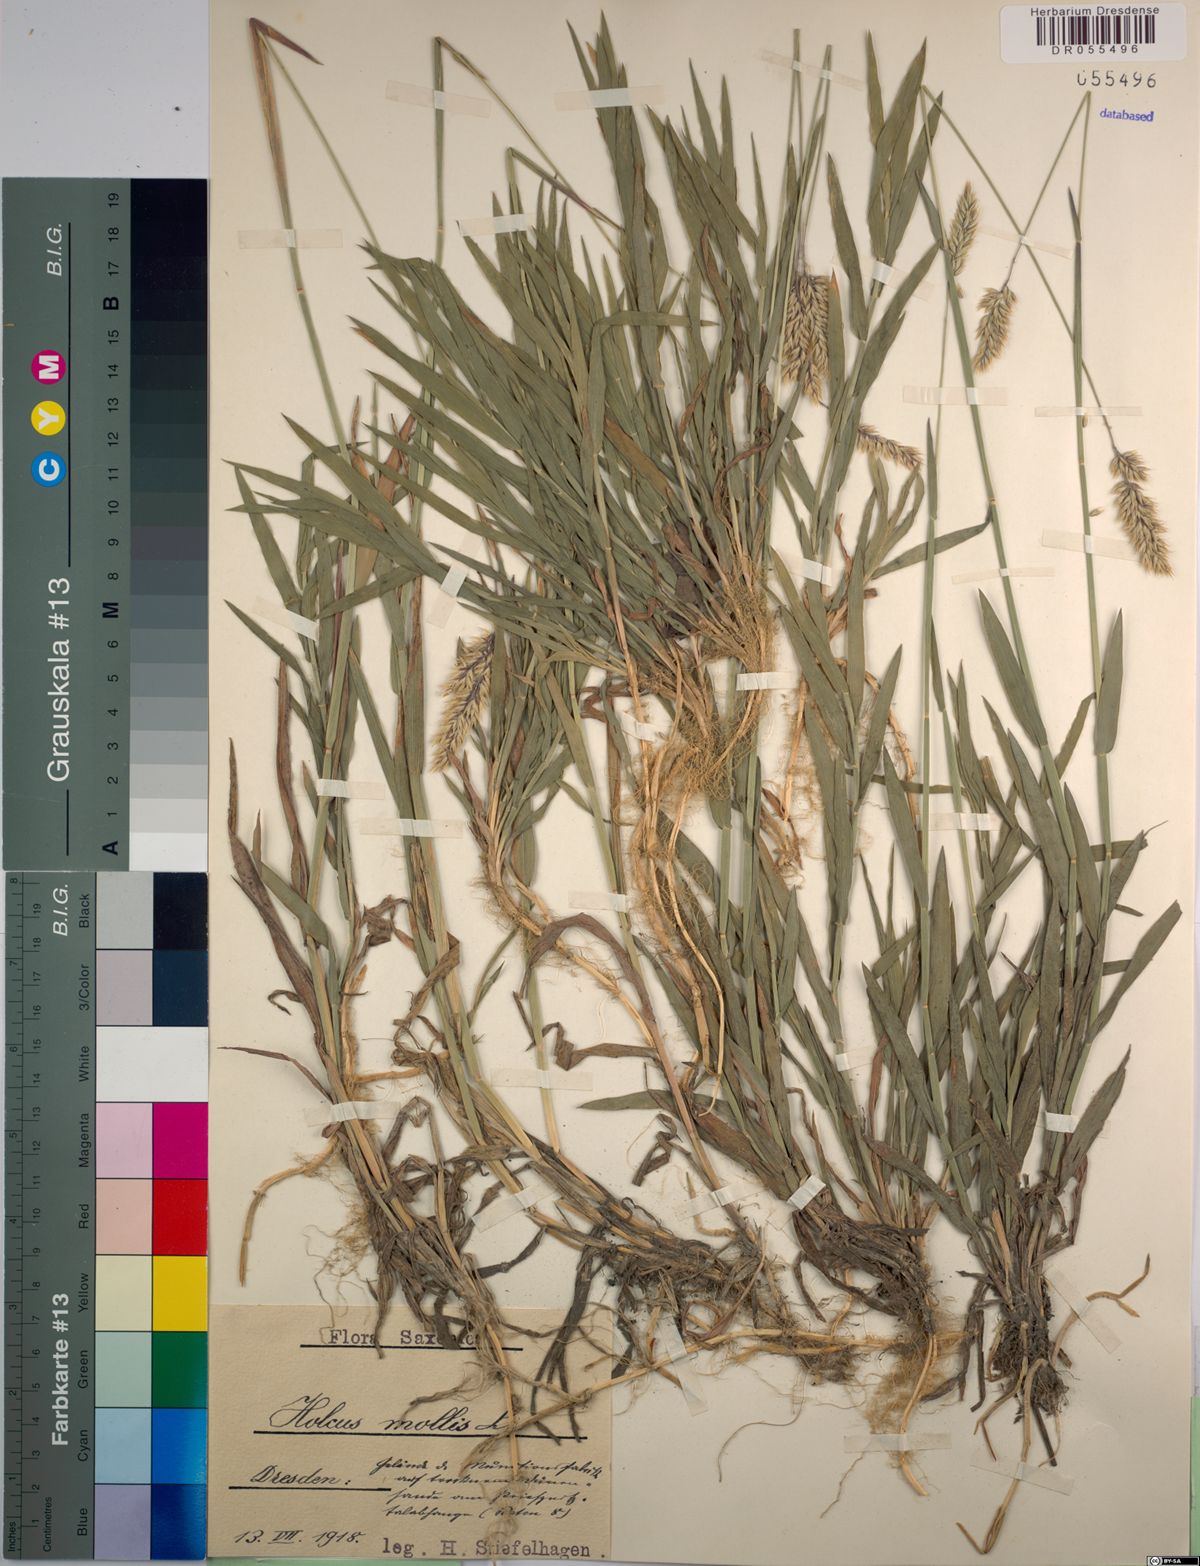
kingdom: Plantae
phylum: Tracheophyta
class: Liliopsida
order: Poales
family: Poaceae
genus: Holcus
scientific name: Holcus mollis
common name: Creeping velvetgrass
